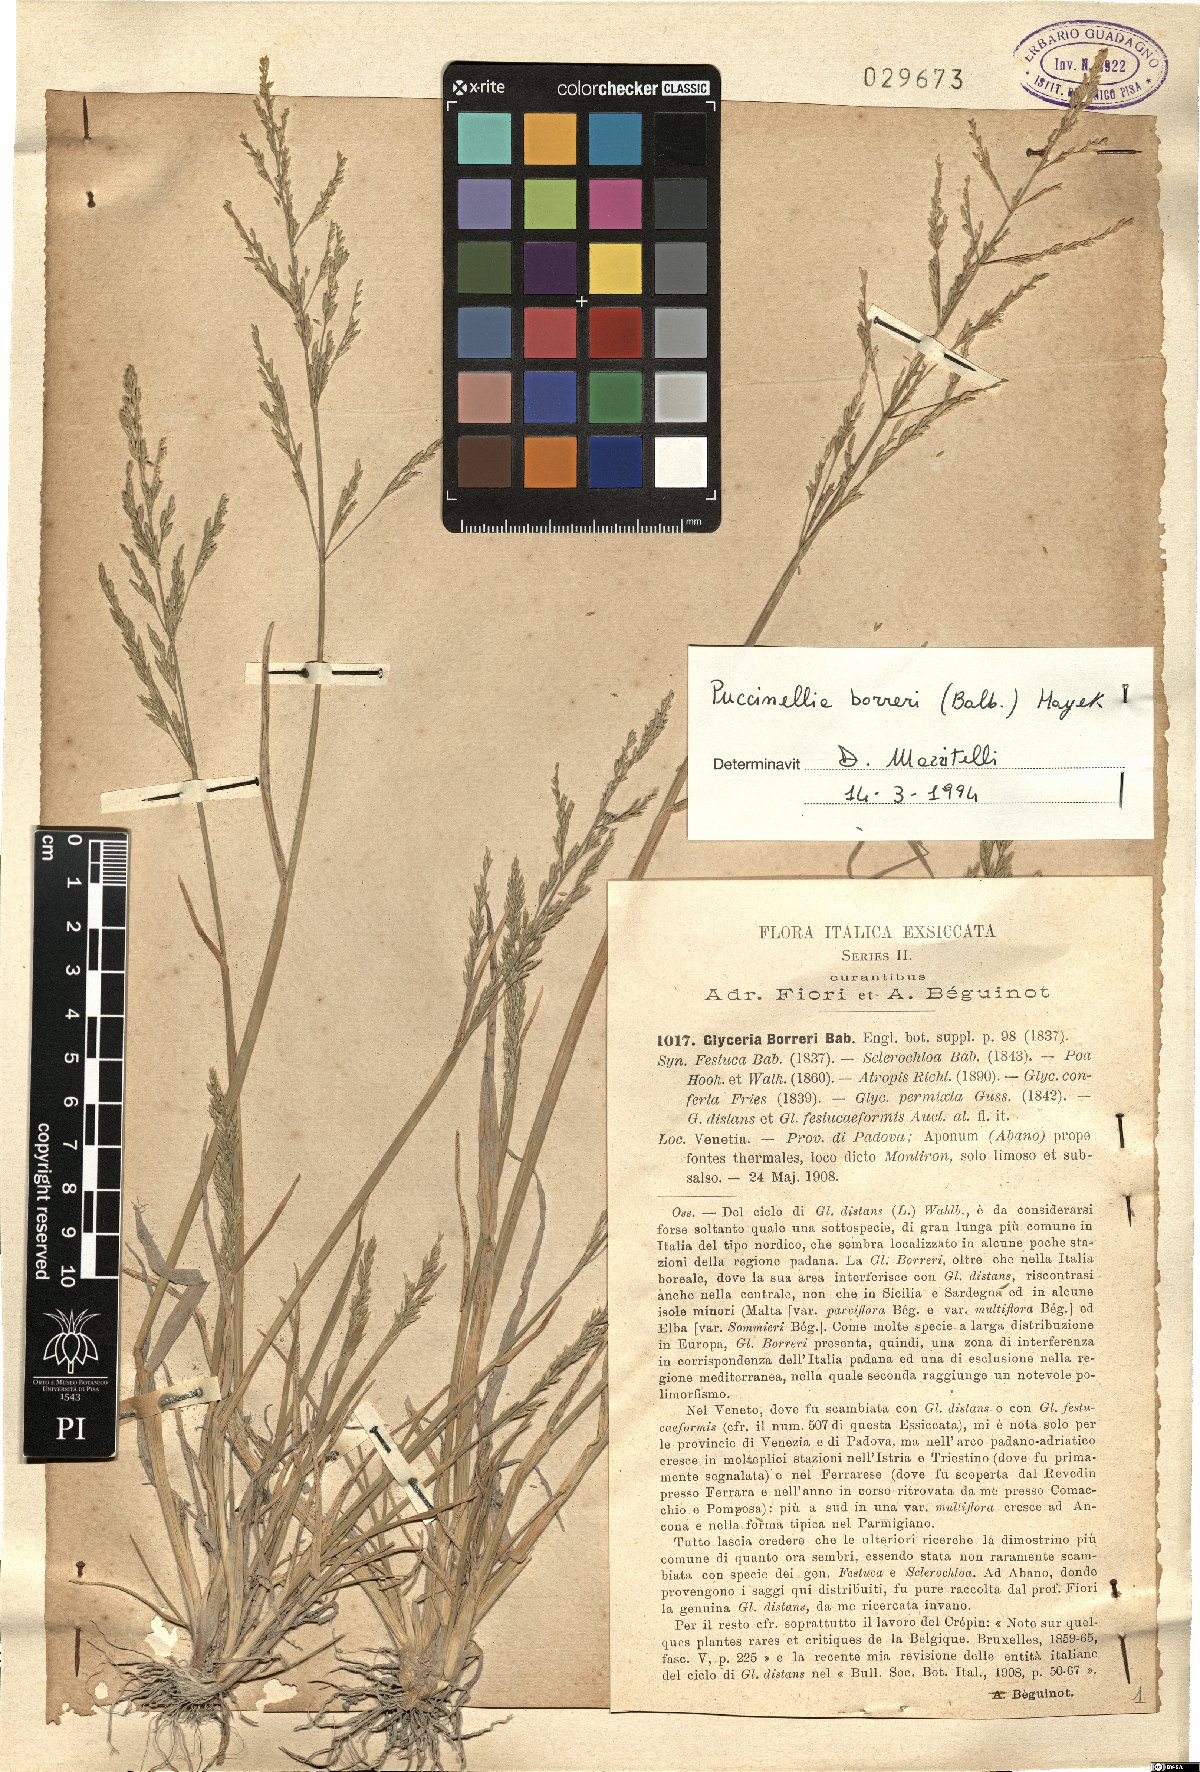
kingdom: Plantae
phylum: Tracheophyta
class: Liliopsida
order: Poales
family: Poaceae
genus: Puccinellia
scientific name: Puccinellia fasciculata
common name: Borrer's saltmarsh-grass
